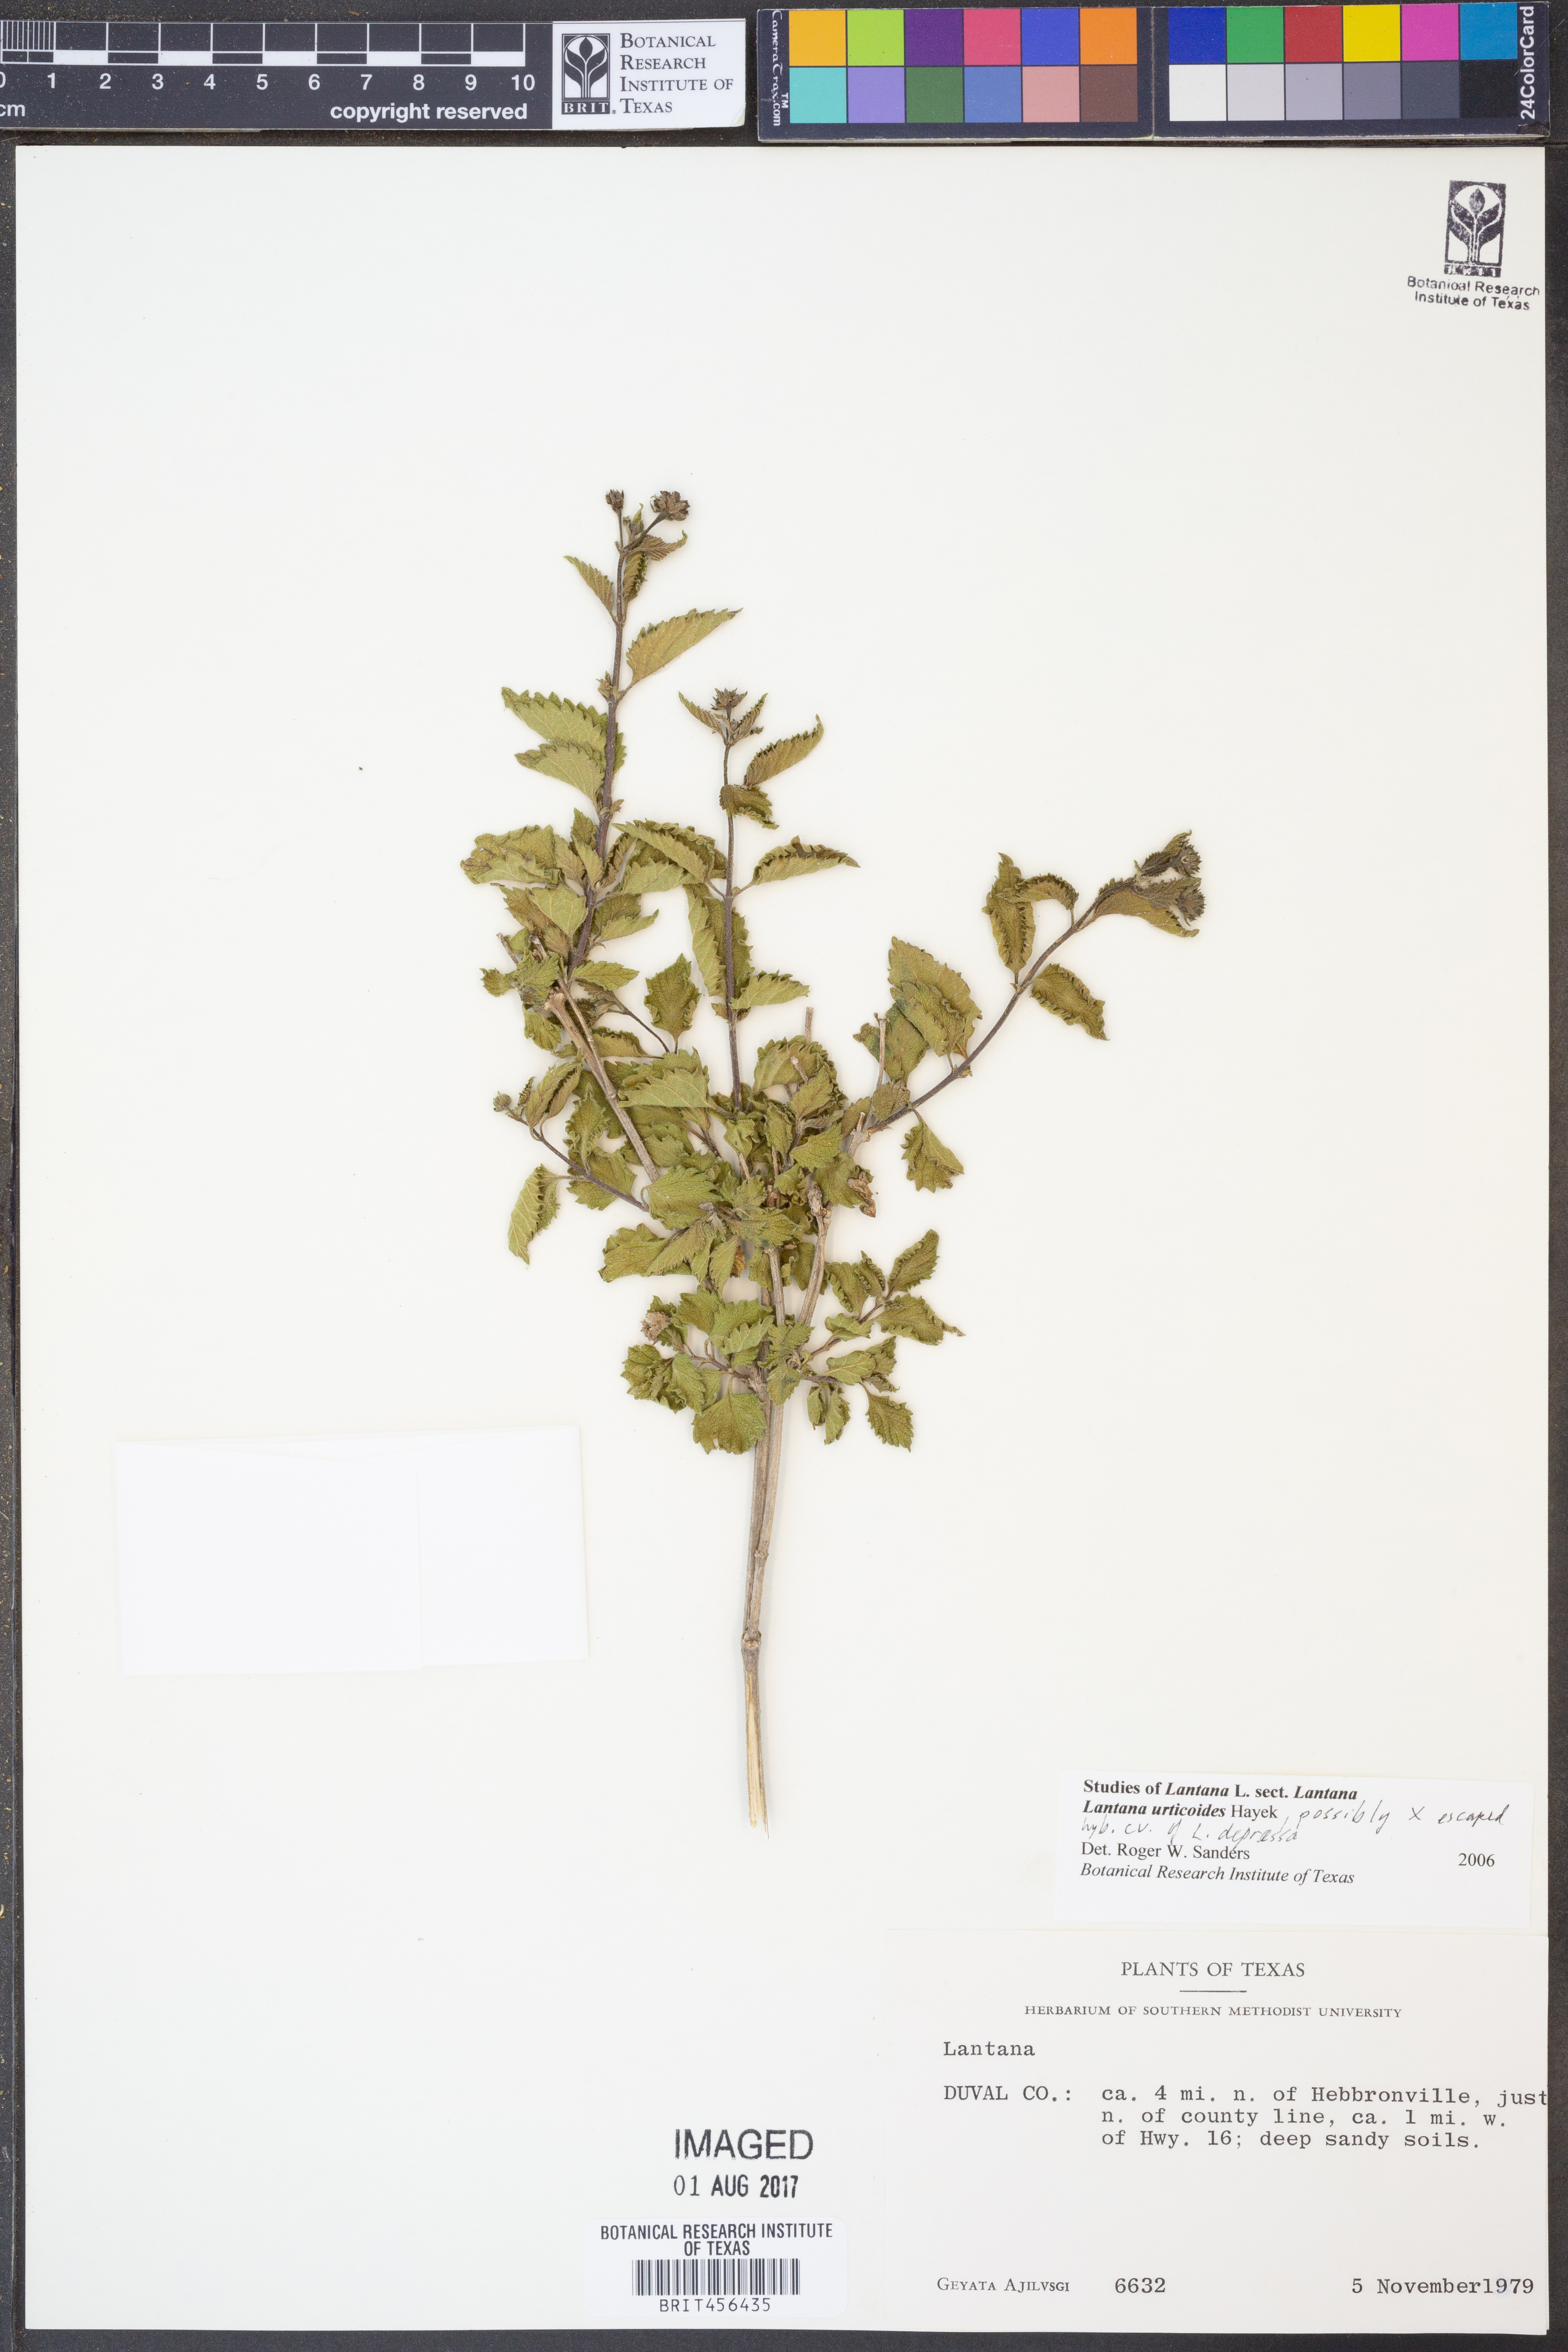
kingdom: Plantae
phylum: Tracheophyta
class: Magnoliopsida
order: Lamiales
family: Verbenaceae
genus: Lantana
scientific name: Lantana urticoides
